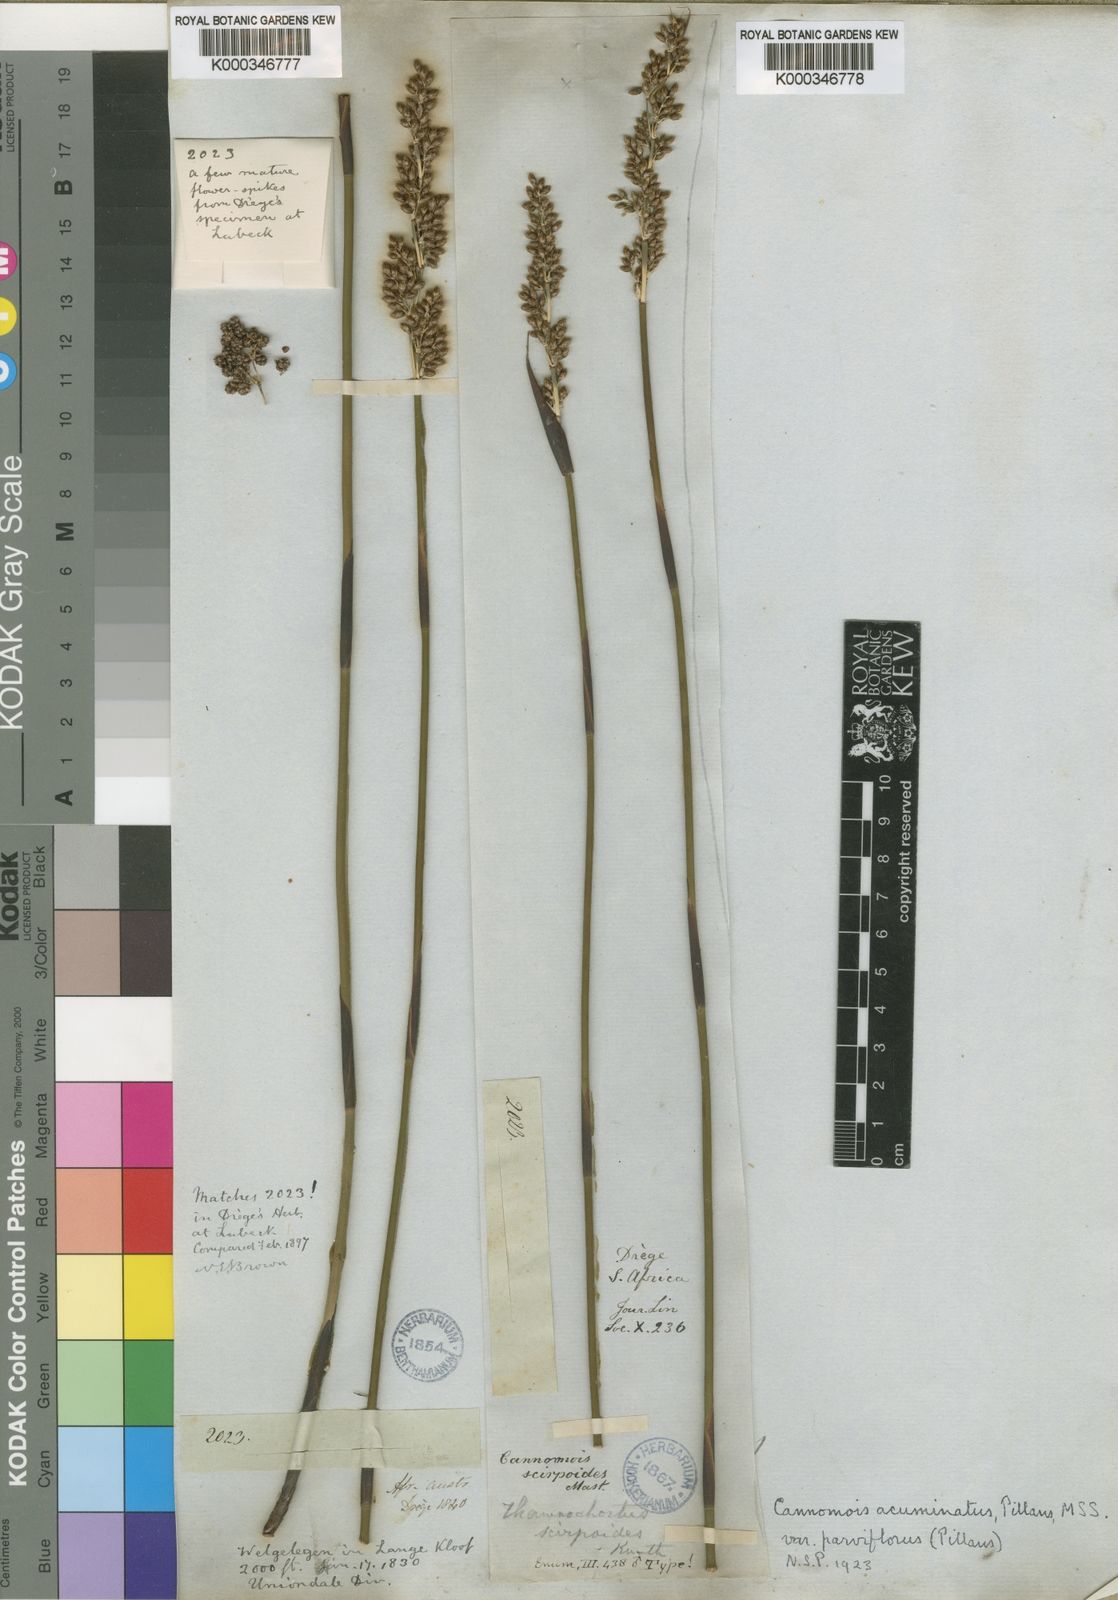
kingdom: Plantae
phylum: Tracheophyta
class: Liliopsida
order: Poales
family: Restionaceae
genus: Cannomois
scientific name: Cannomois scirpoides
